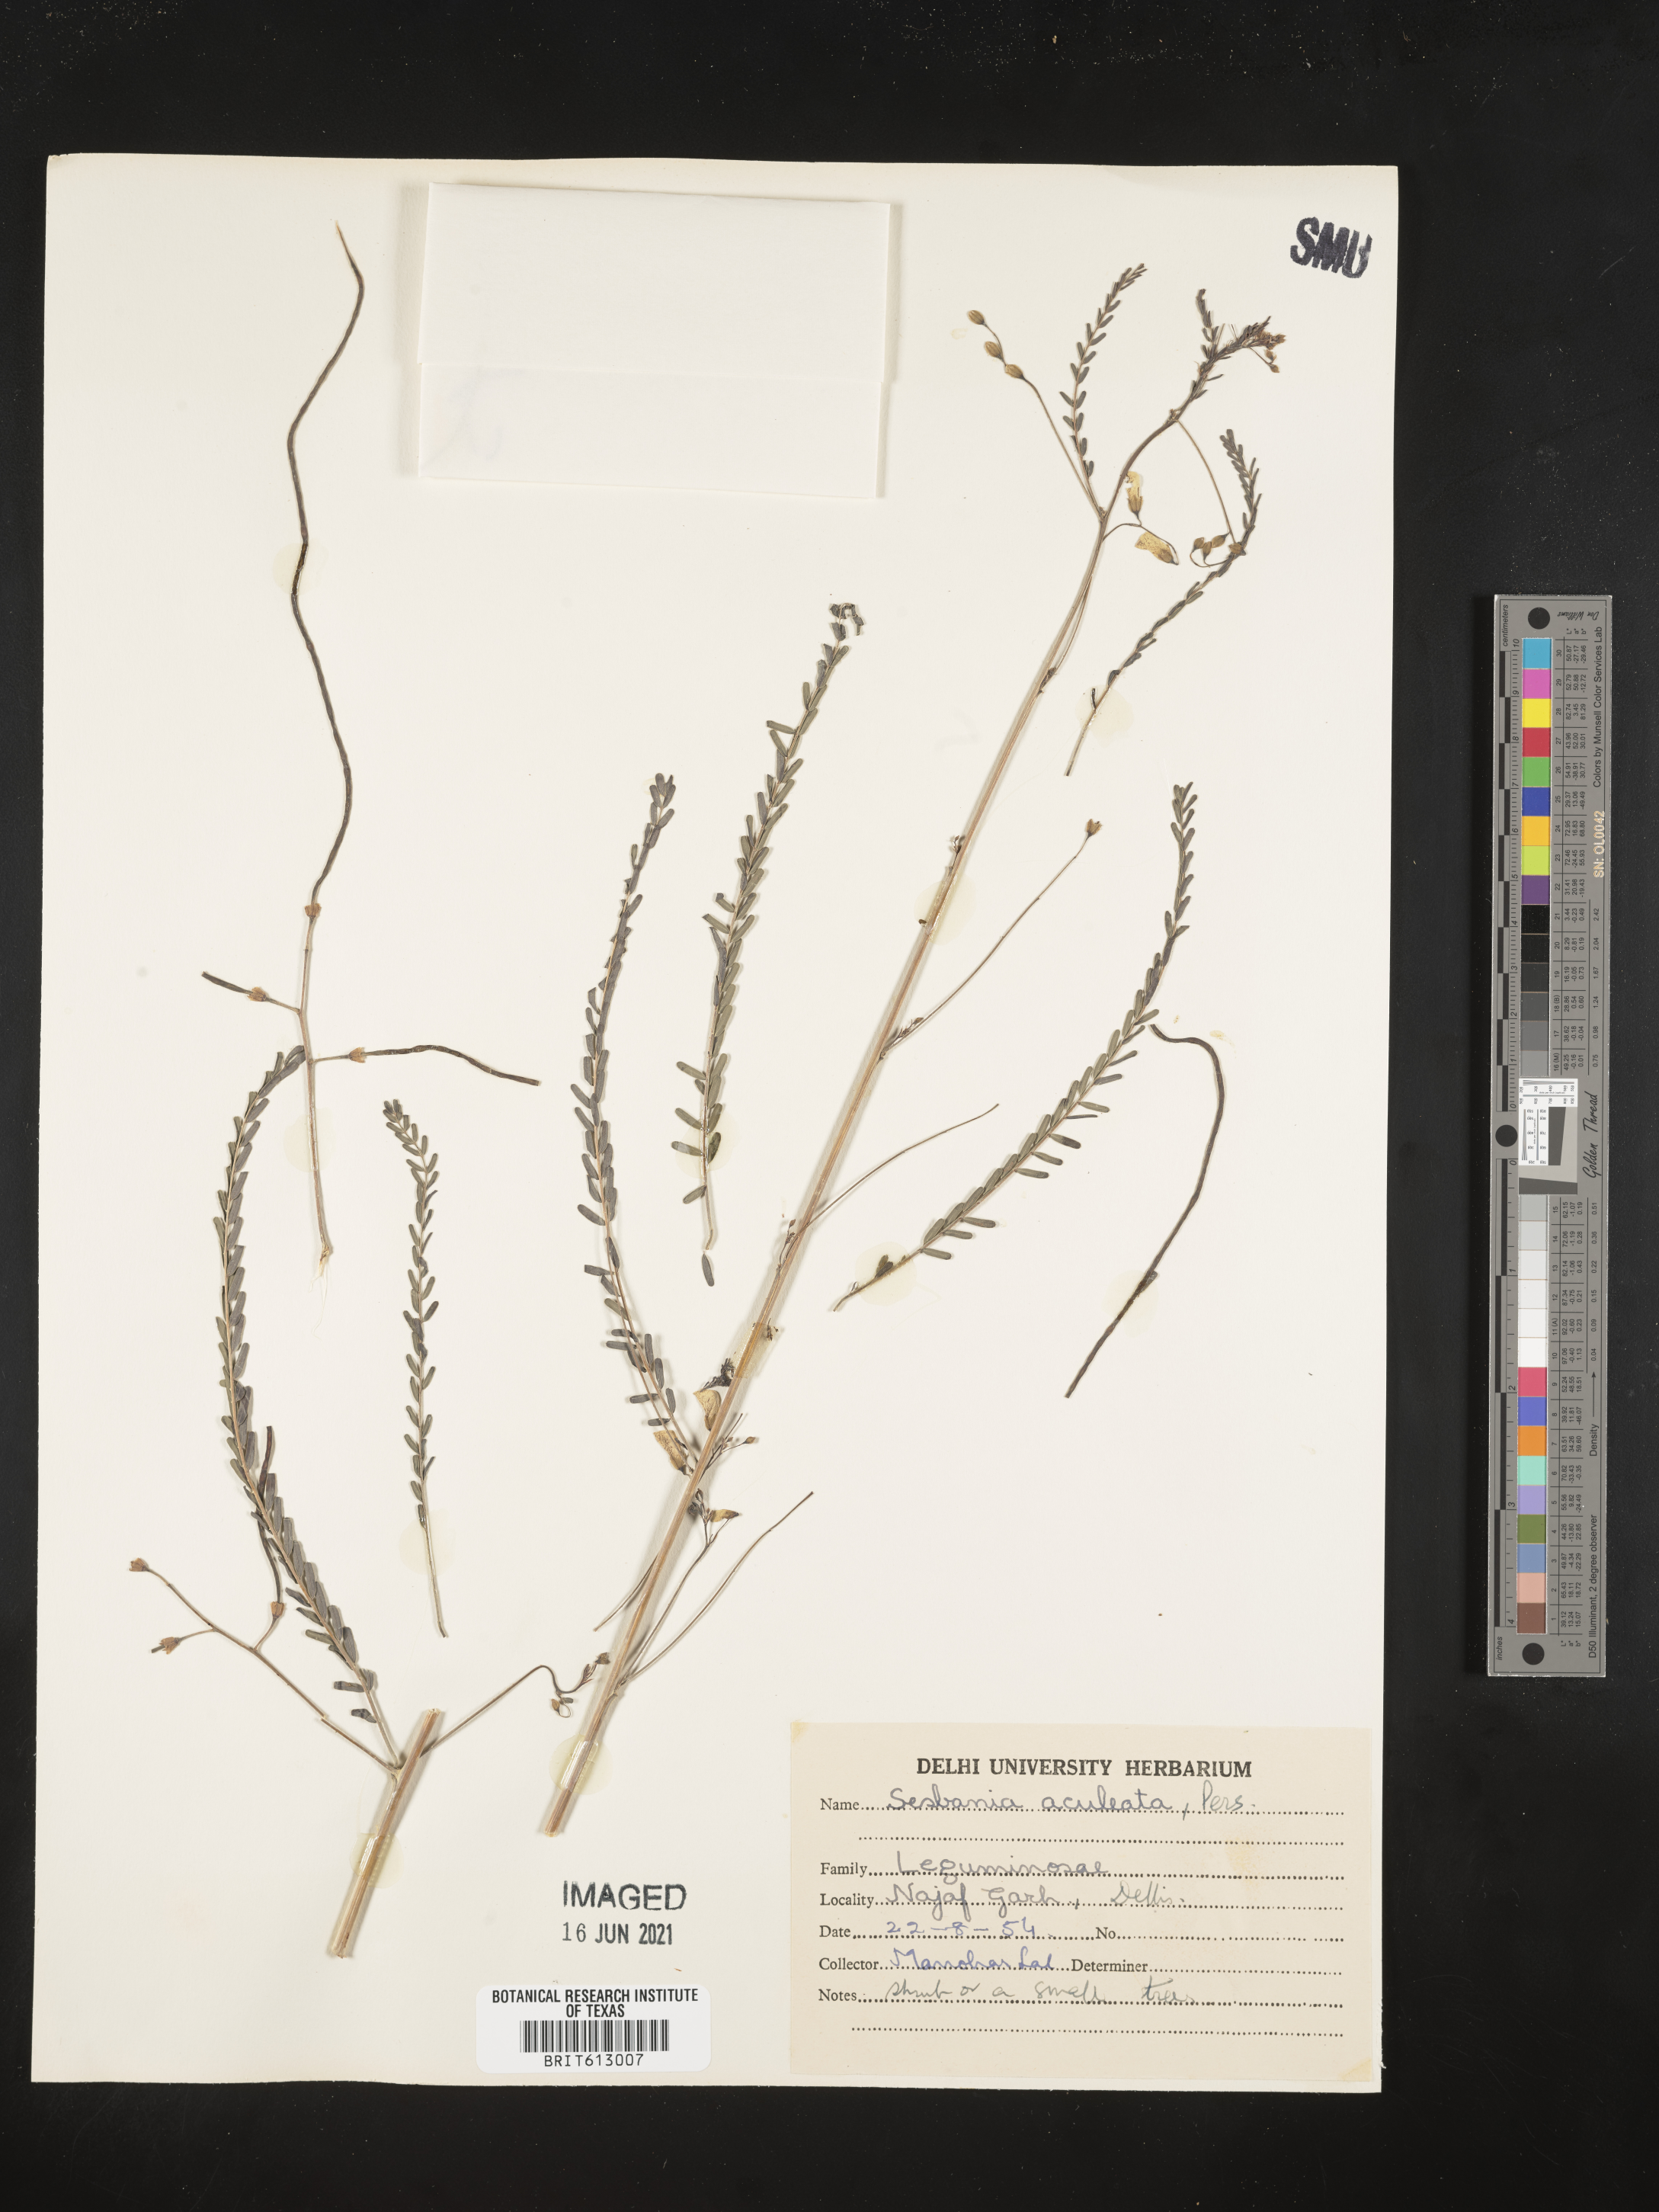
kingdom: Plantae
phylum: Tracheophyta
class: Magnoliopsida
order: Fabales
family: Fabaceae
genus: Sesbania
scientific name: Sesbania bispinosa
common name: Sesbania pea
